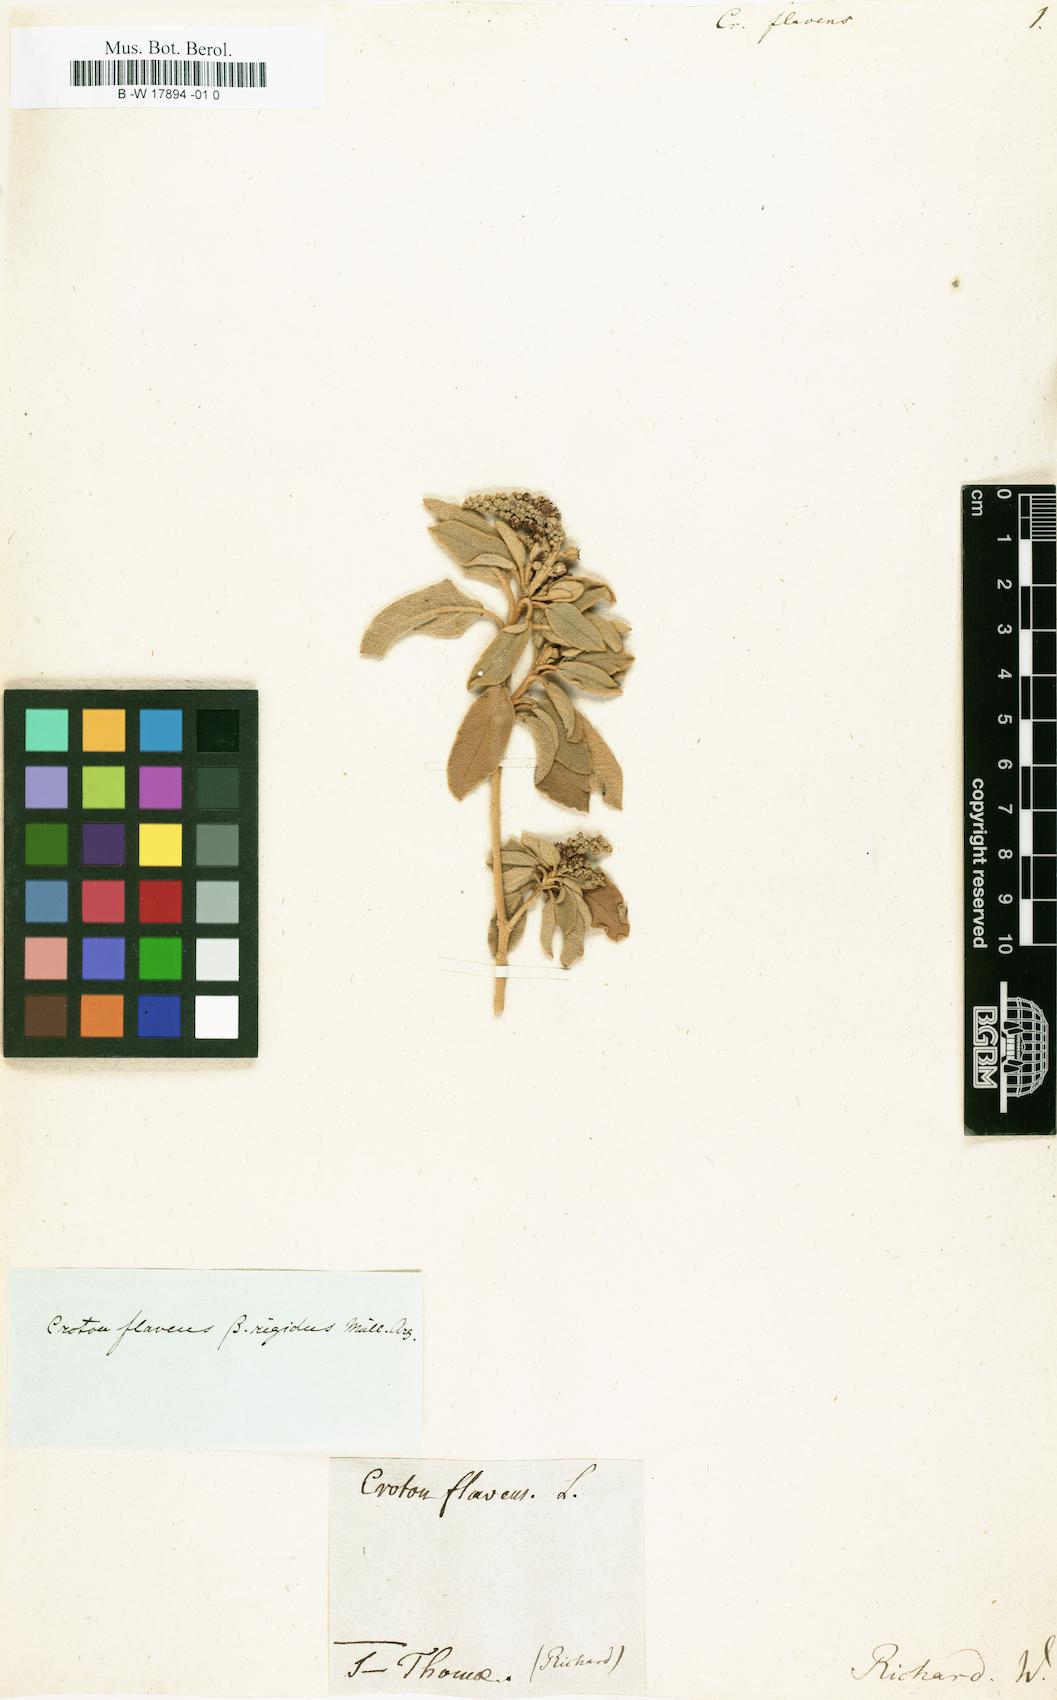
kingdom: Plantae
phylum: Tracheophyta
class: Magnoliopsida
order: Malpighiales
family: Euphorbiaceae
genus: Croton
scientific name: Croton flavens
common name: Yellow balsam
